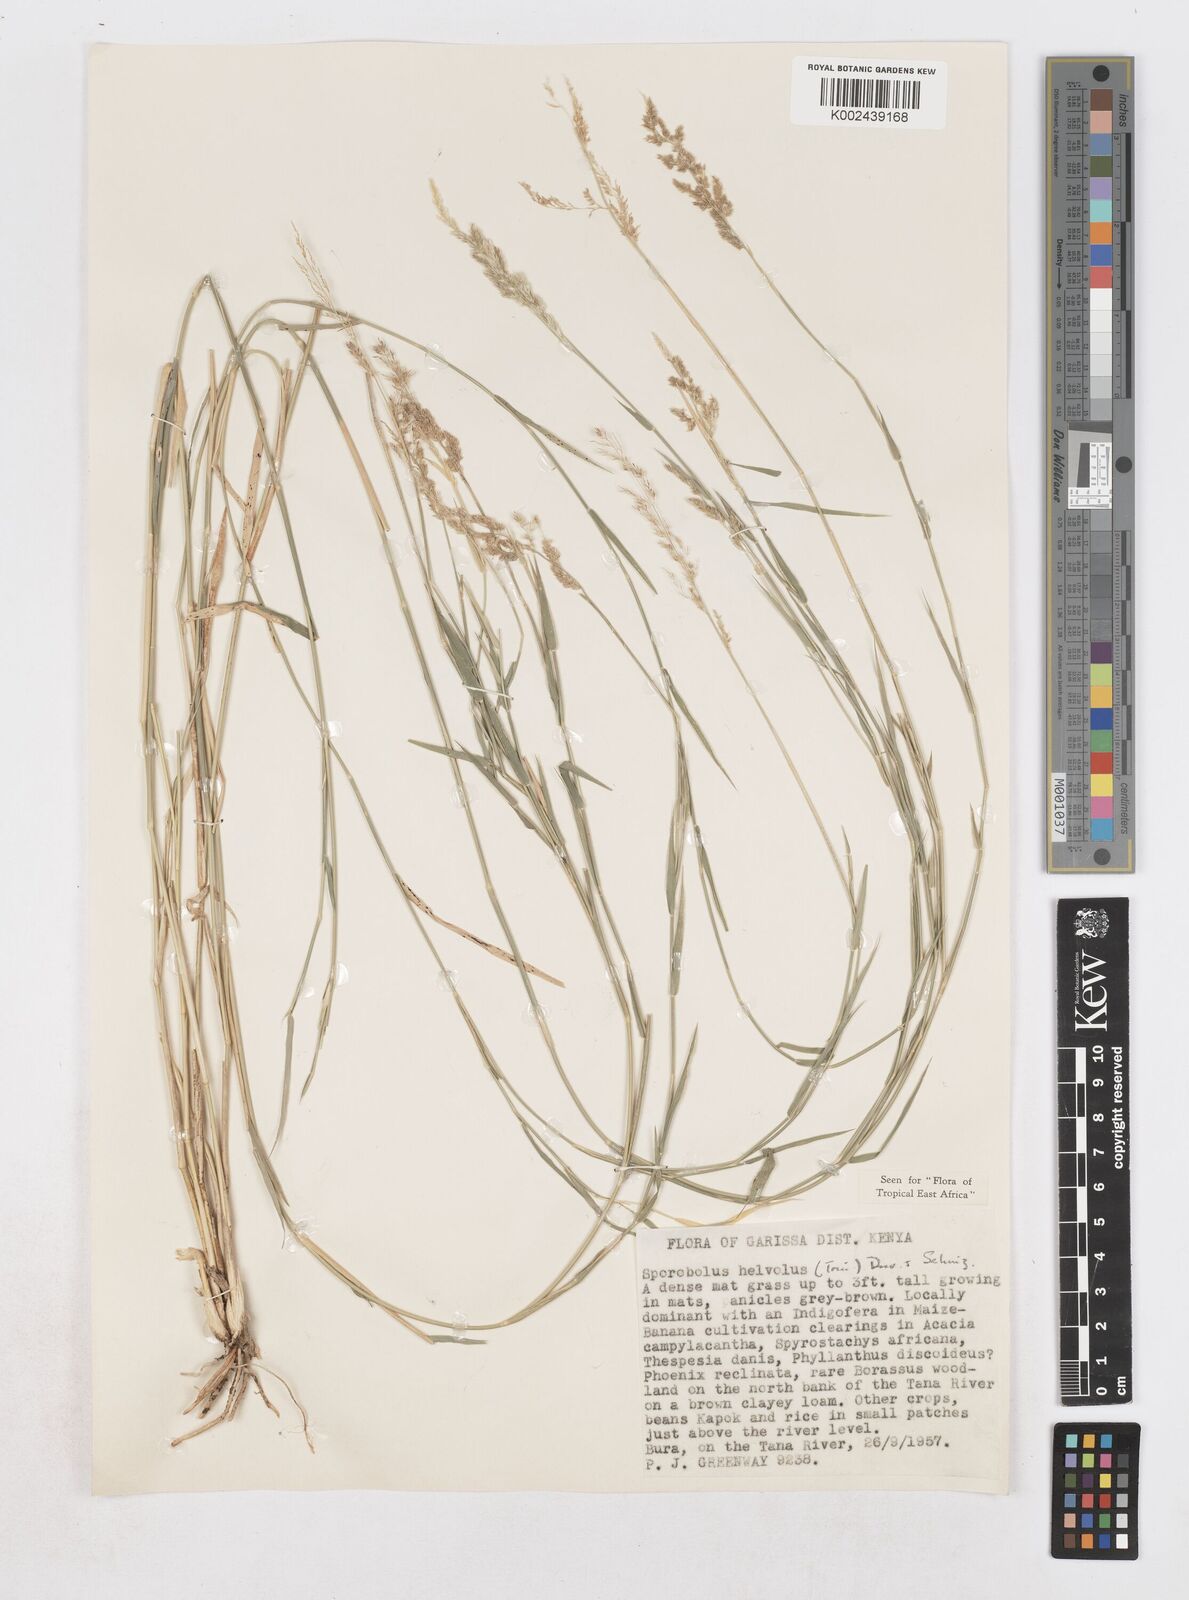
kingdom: Plantae
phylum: Tracheophyta
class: Liliopsida
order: Poales
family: Poaceae
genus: Sporobolus
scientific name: Sporobolus helvolus
